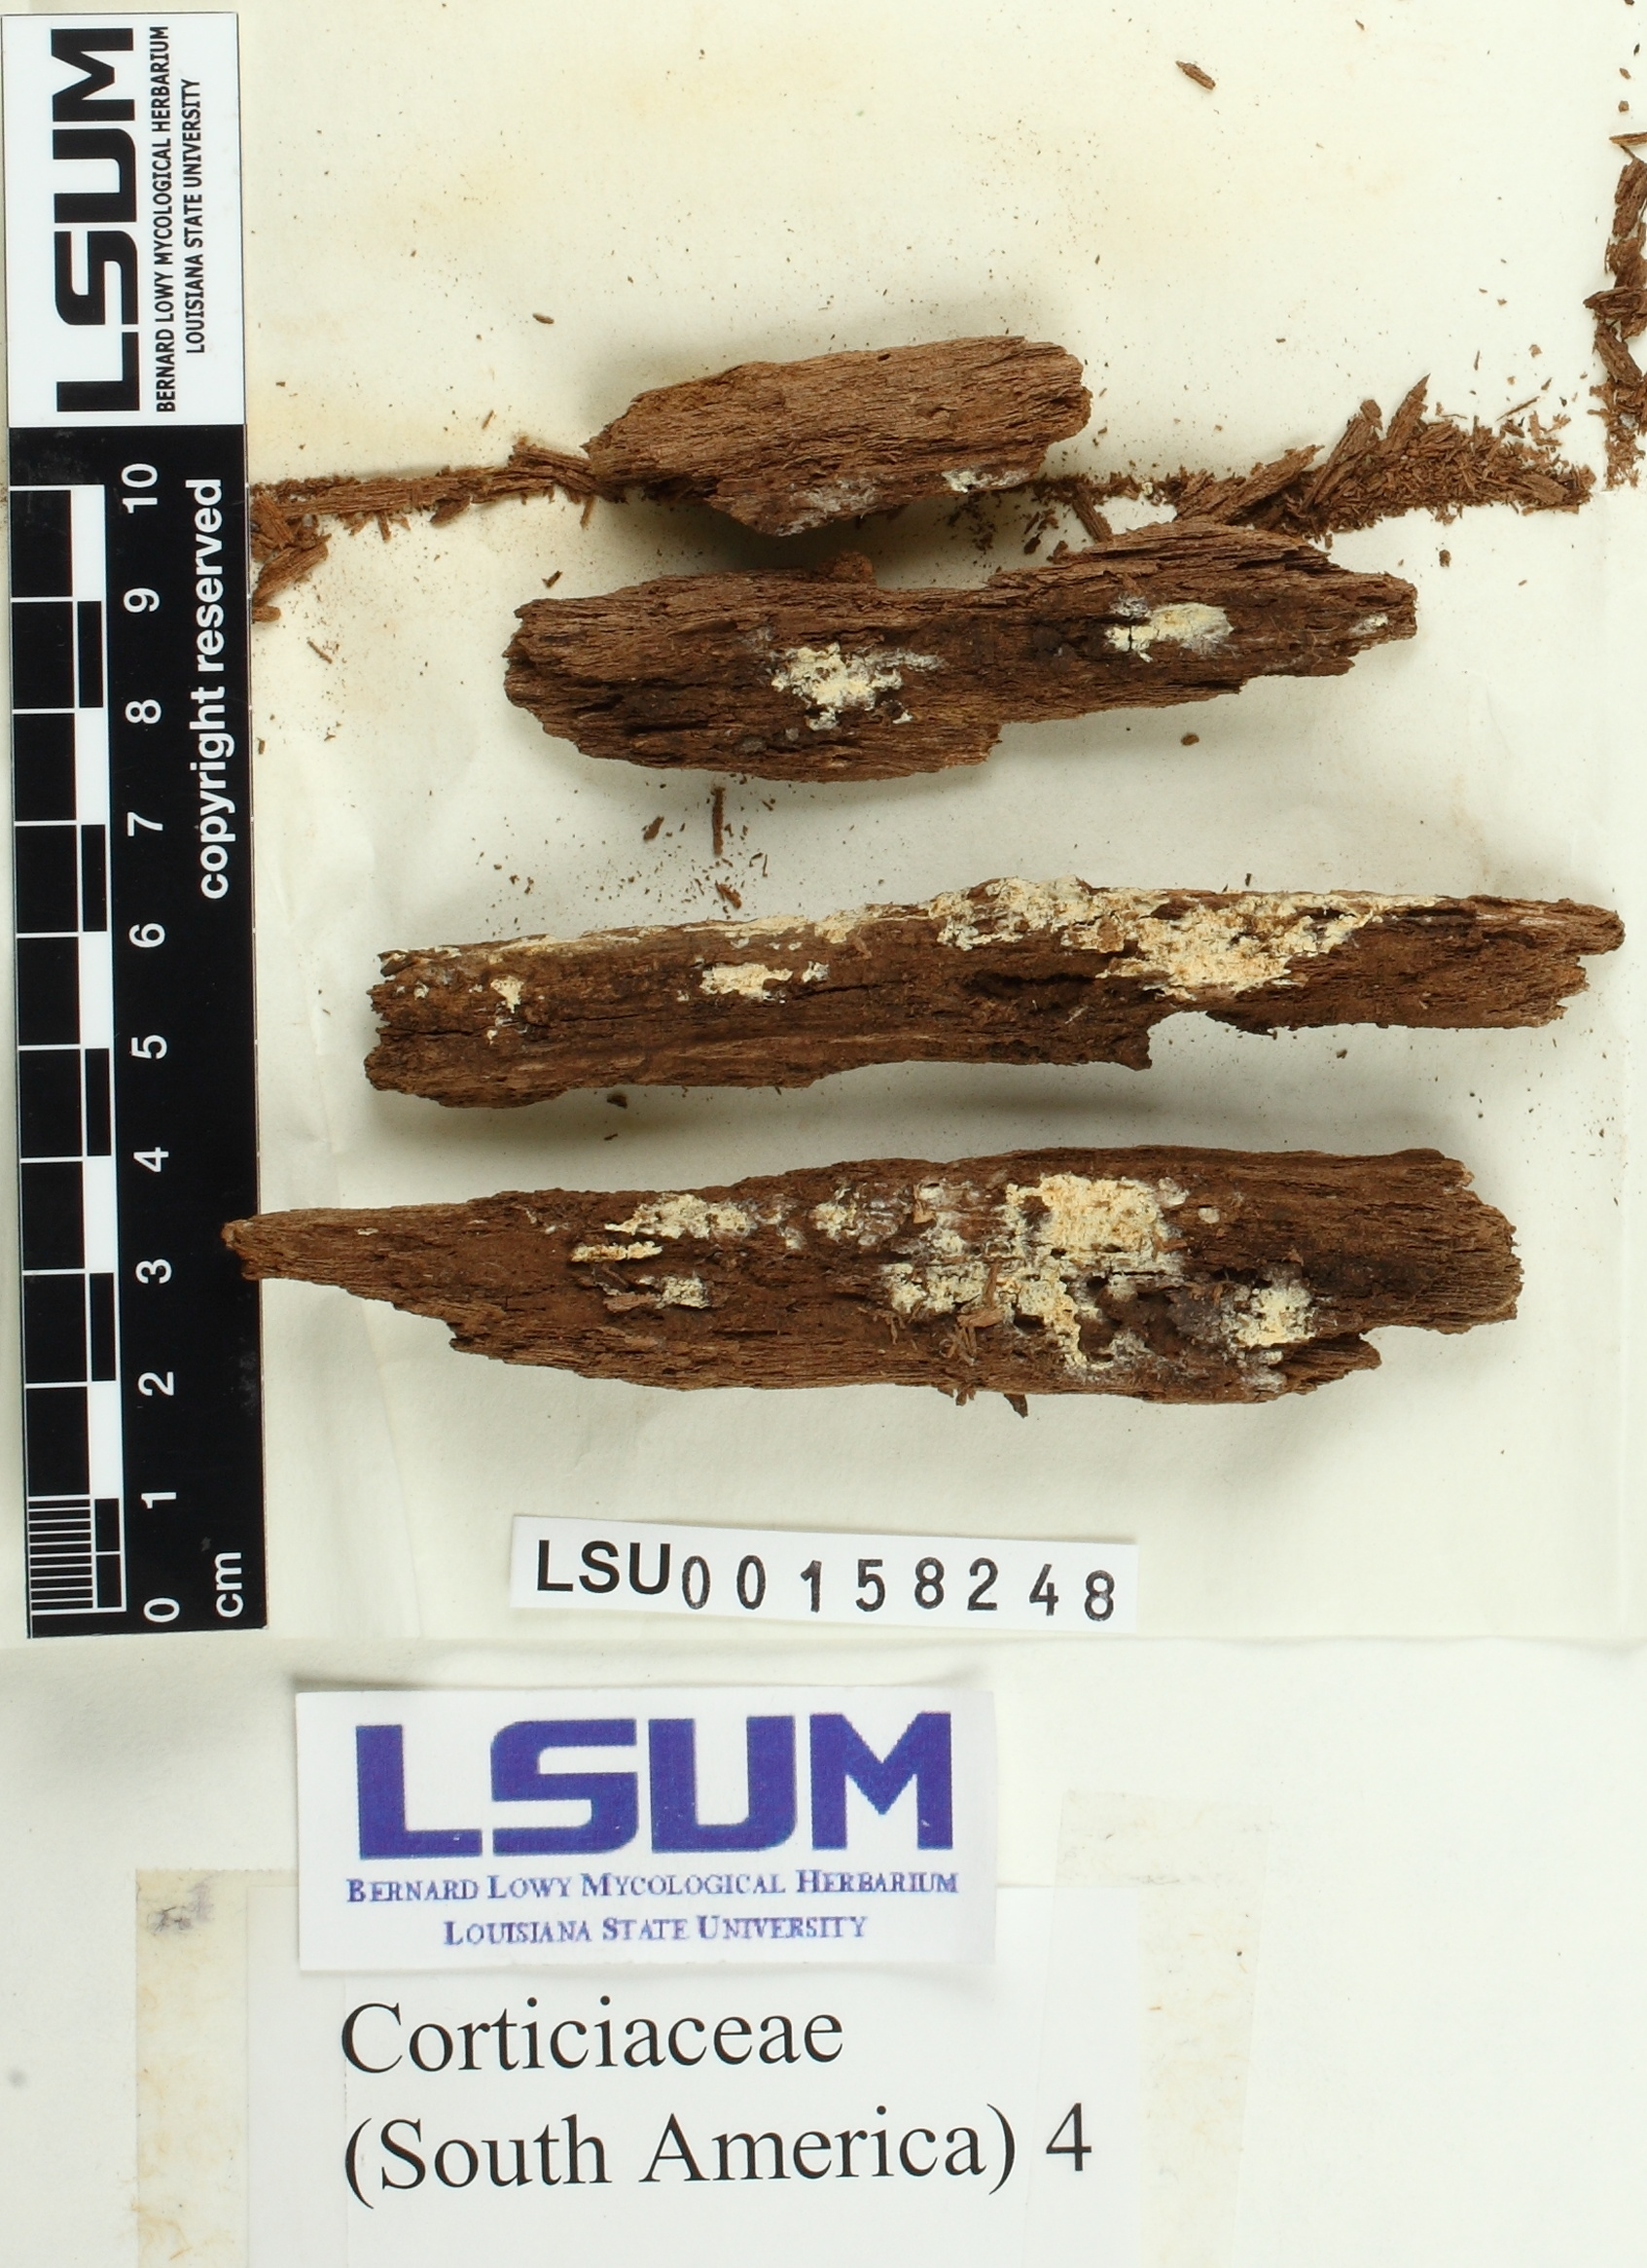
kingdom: Fungi
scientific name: Fungi
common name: Fungi
